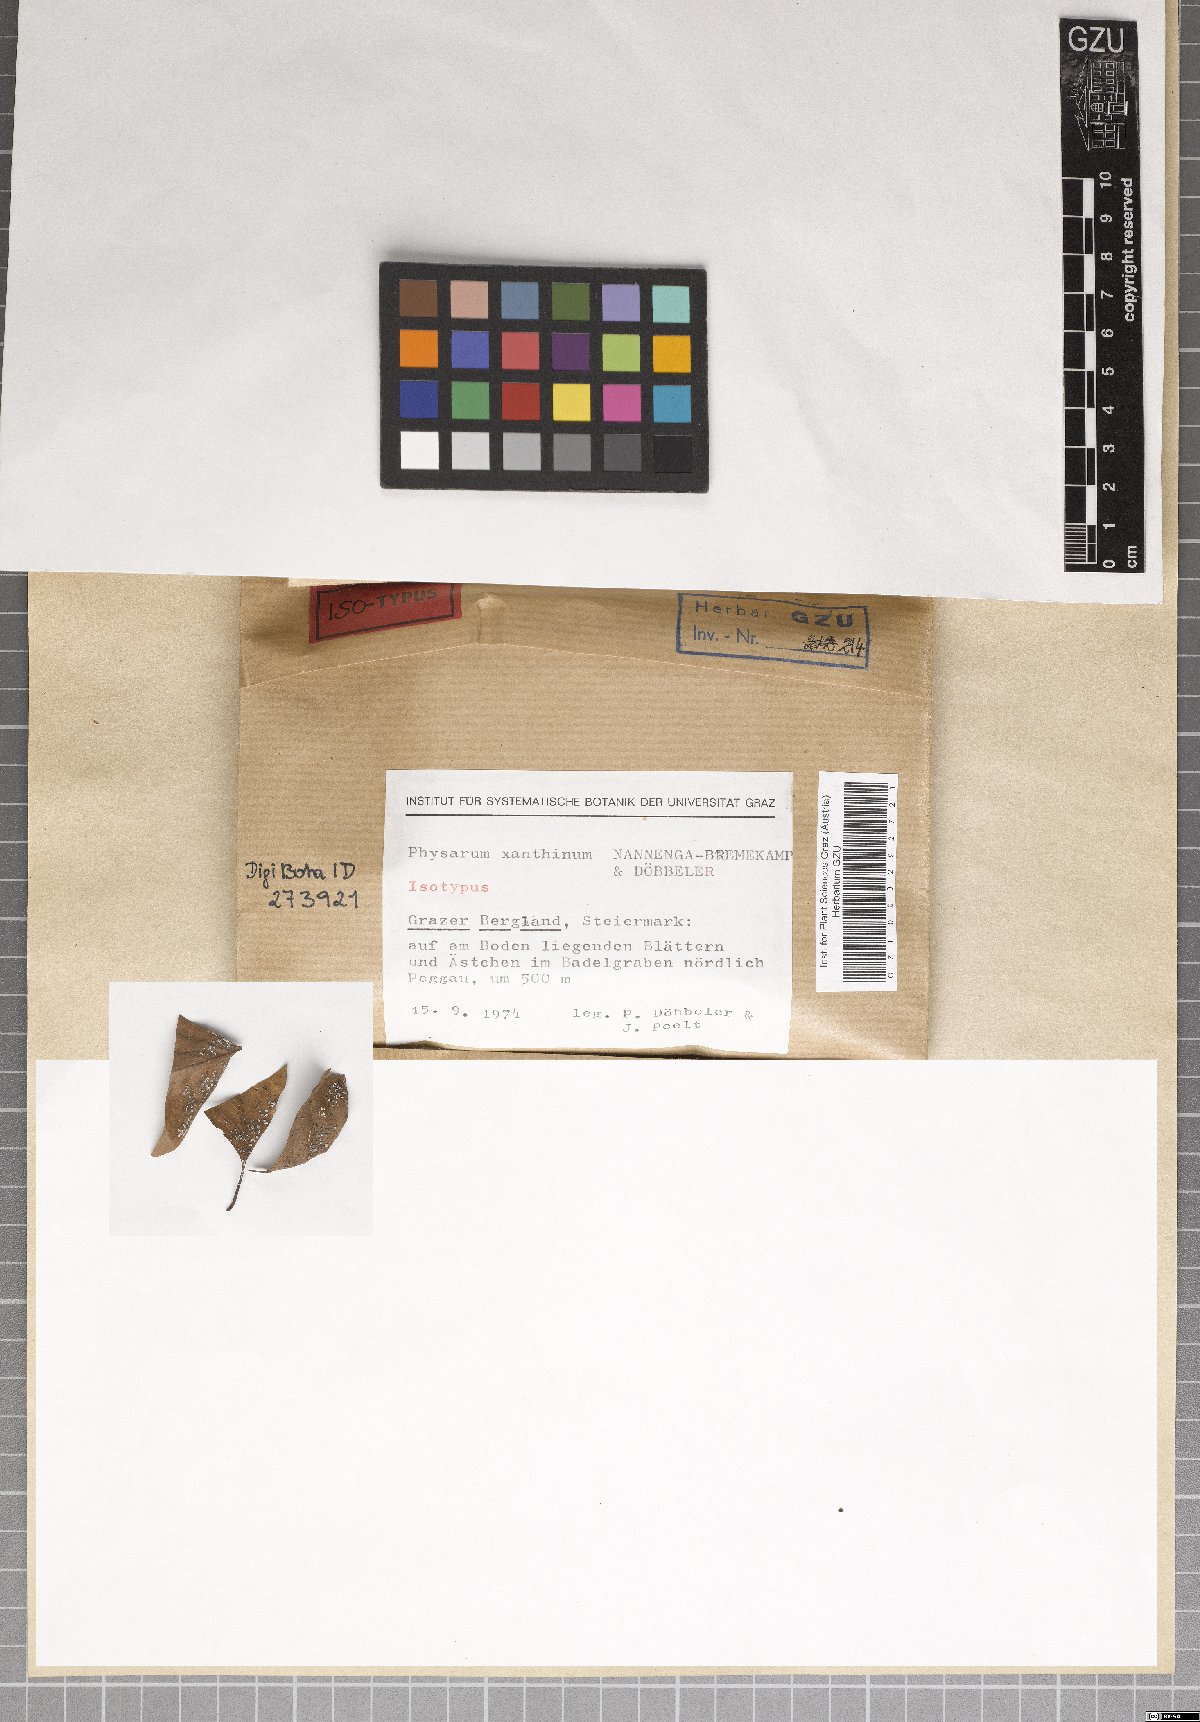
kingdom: Protozoa
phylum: Mycetozoa
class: Myxomycetes
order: Physarales
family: Physaraceae
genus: Physarum
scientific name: Physarum xanthinum
